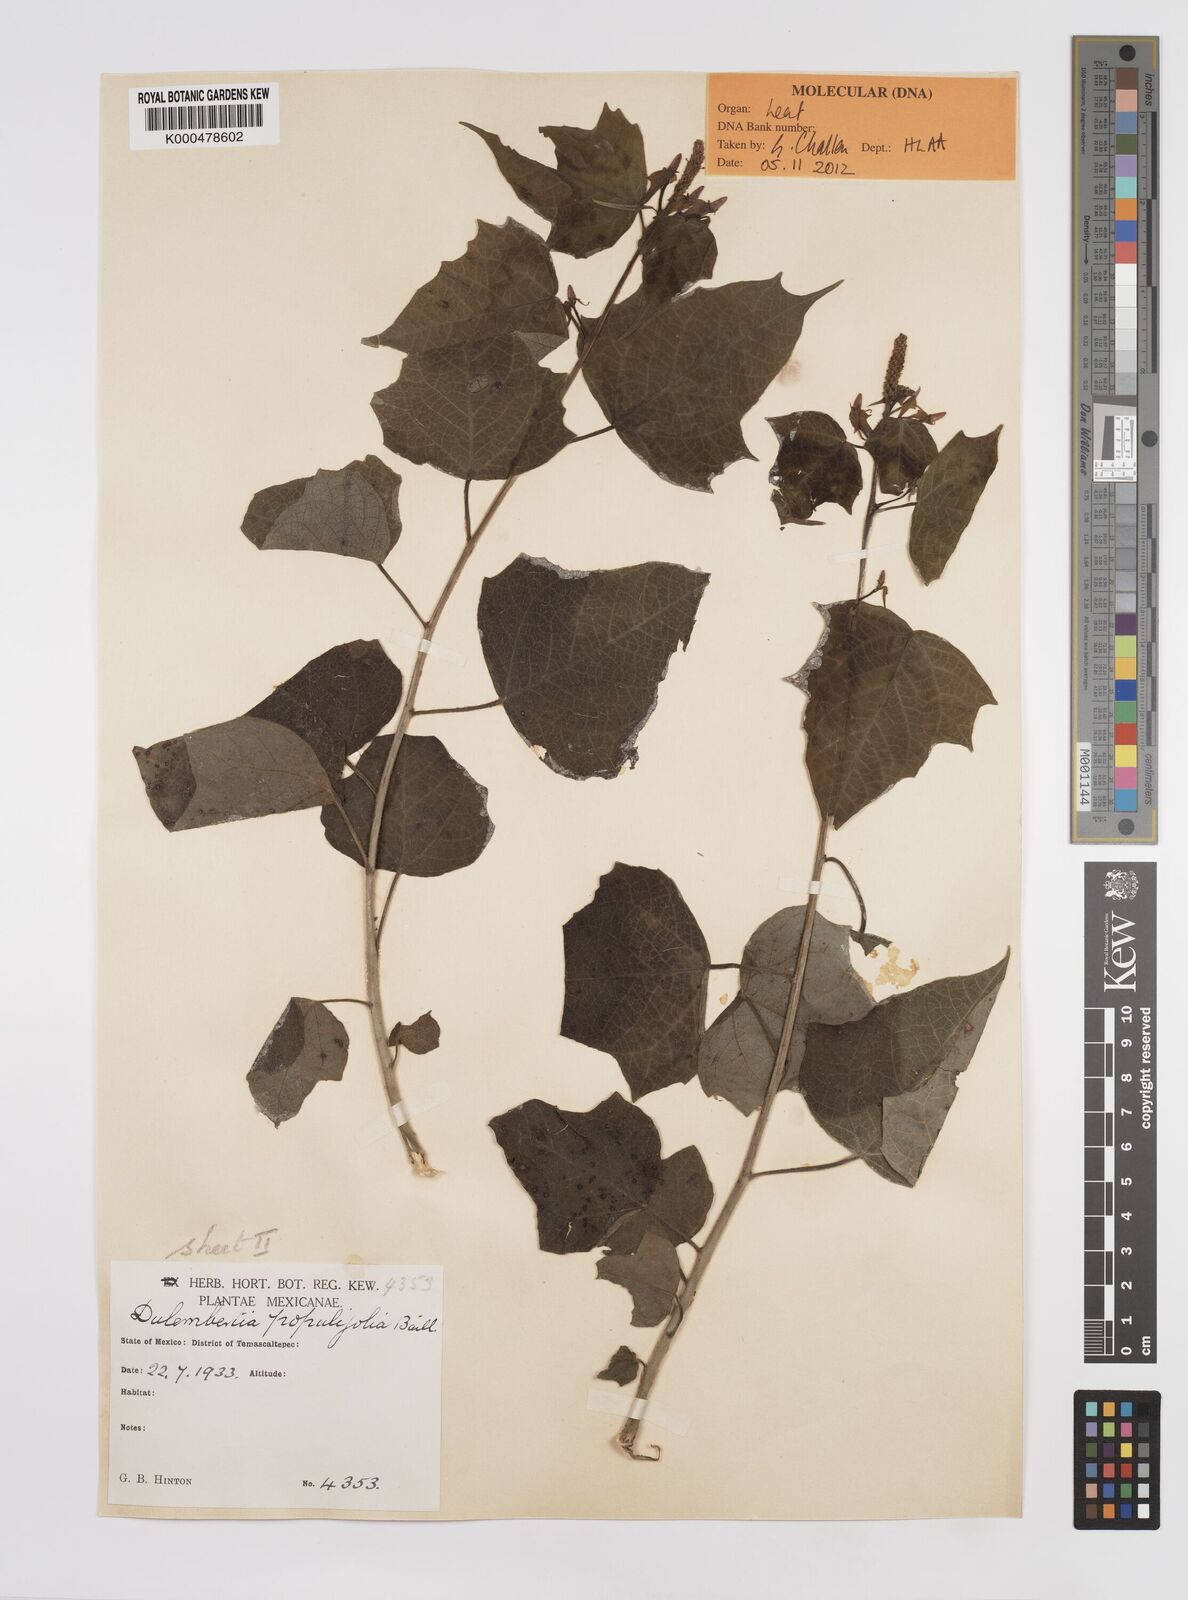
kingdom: Plantae
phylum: Tracheophyta
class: Magnoliopsida
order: Malpighiales
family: Euphorbiaceae
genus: Dalembertia
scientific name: Dalembertia populifolia
